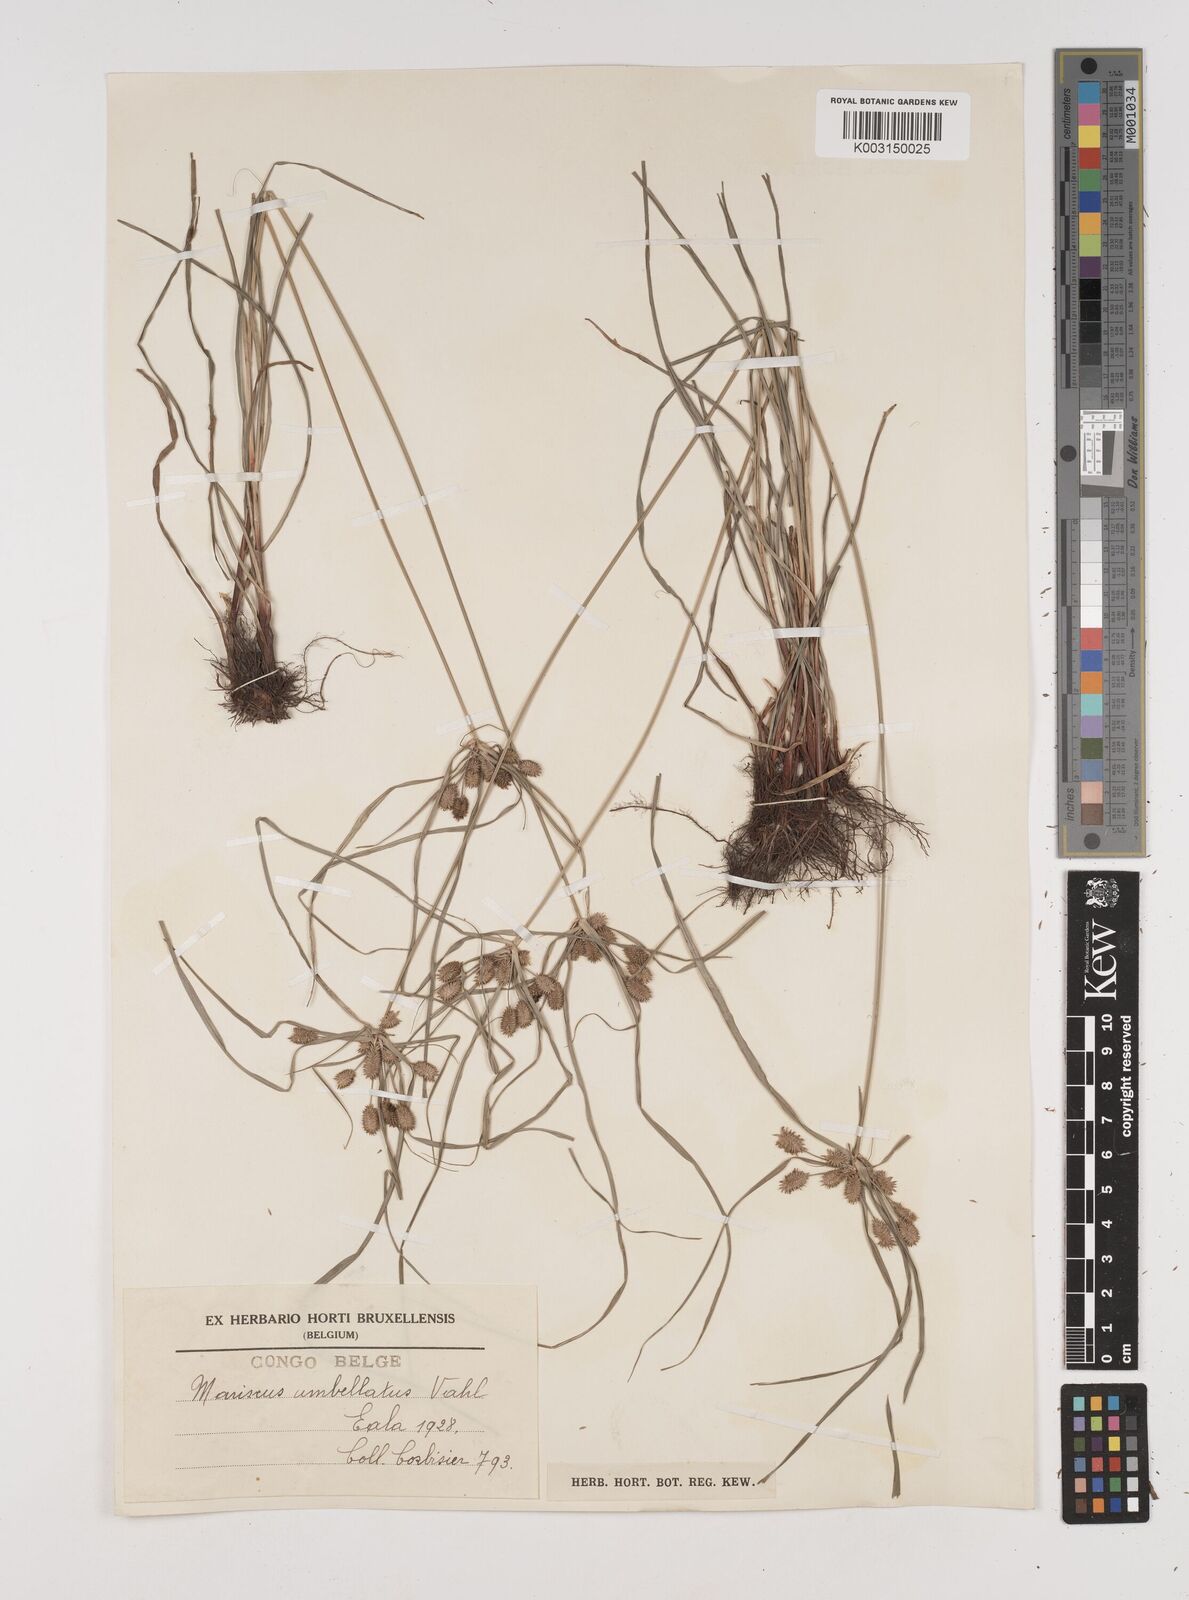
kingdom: Plantae
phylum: Tracheophyta
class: Liliopsida
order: Poales
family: Cyperaceae
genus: Cyperus
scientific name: Cyperus cyperoides
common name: Pacific island flat sedge
